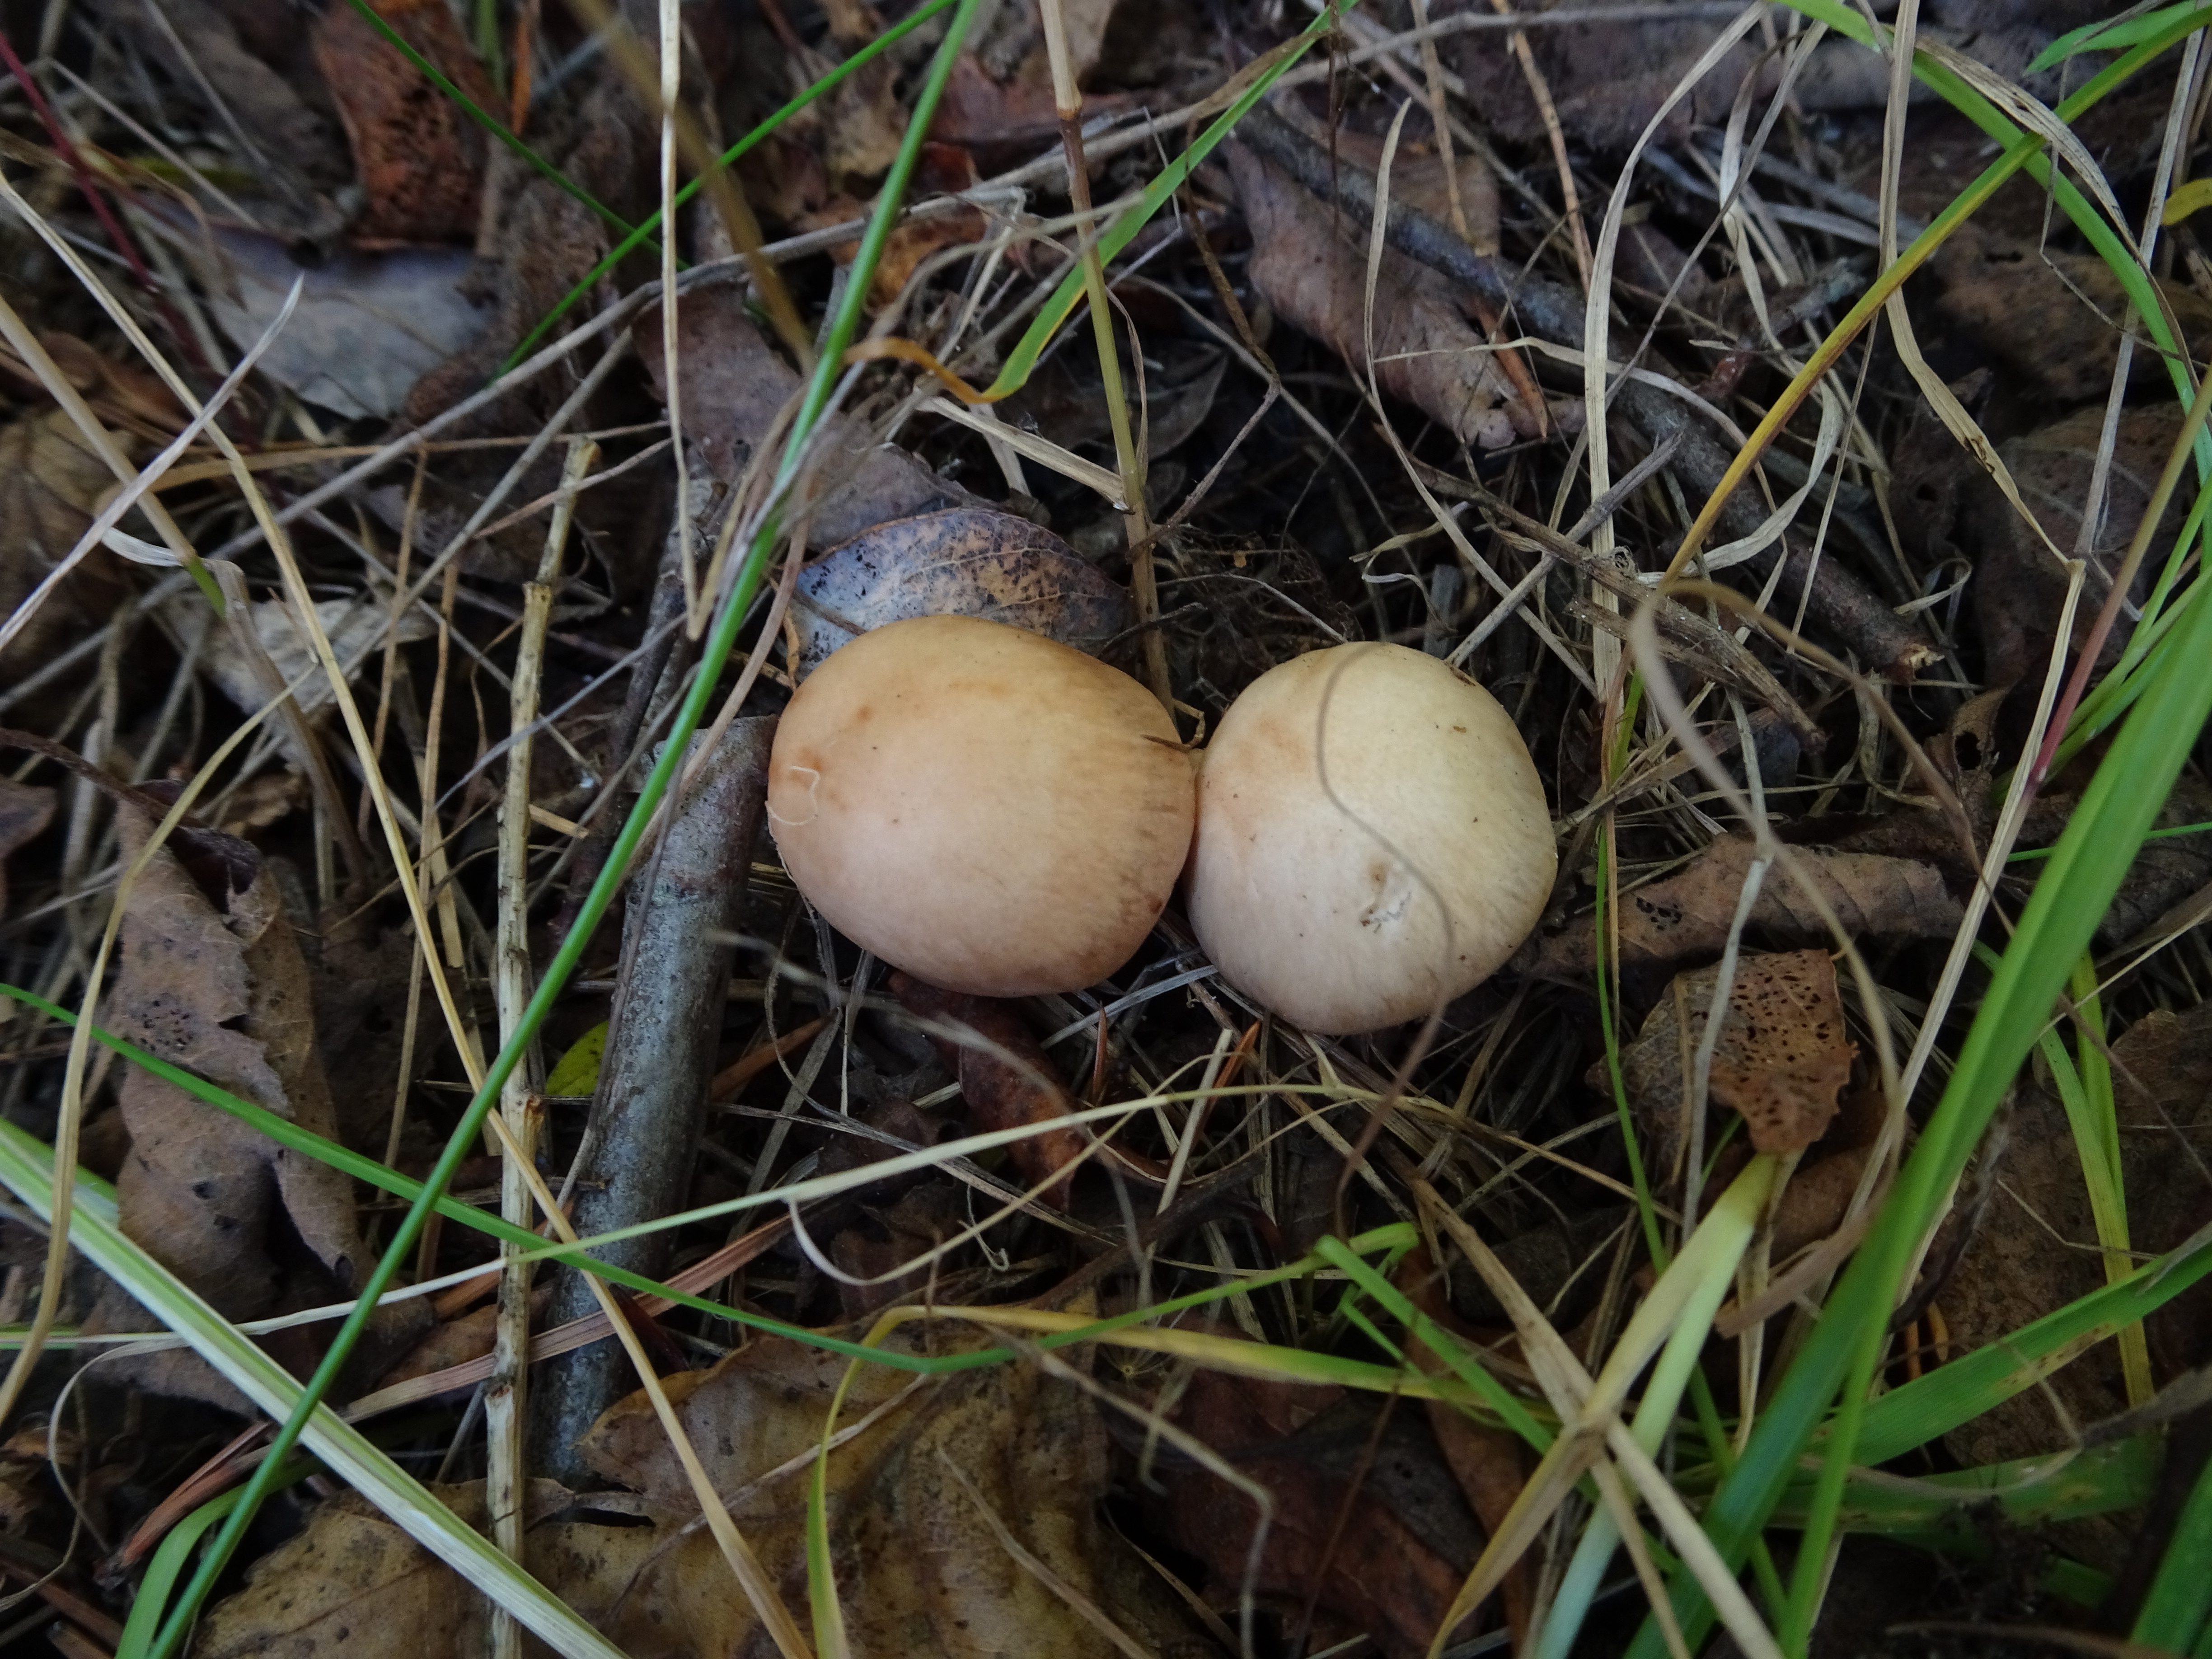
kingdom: Fungi
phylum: Basidiomycota
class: Agaricomycetes
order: Agaricales
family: Cortinariaceae
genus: Cortinarius
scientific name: Cortinarius
